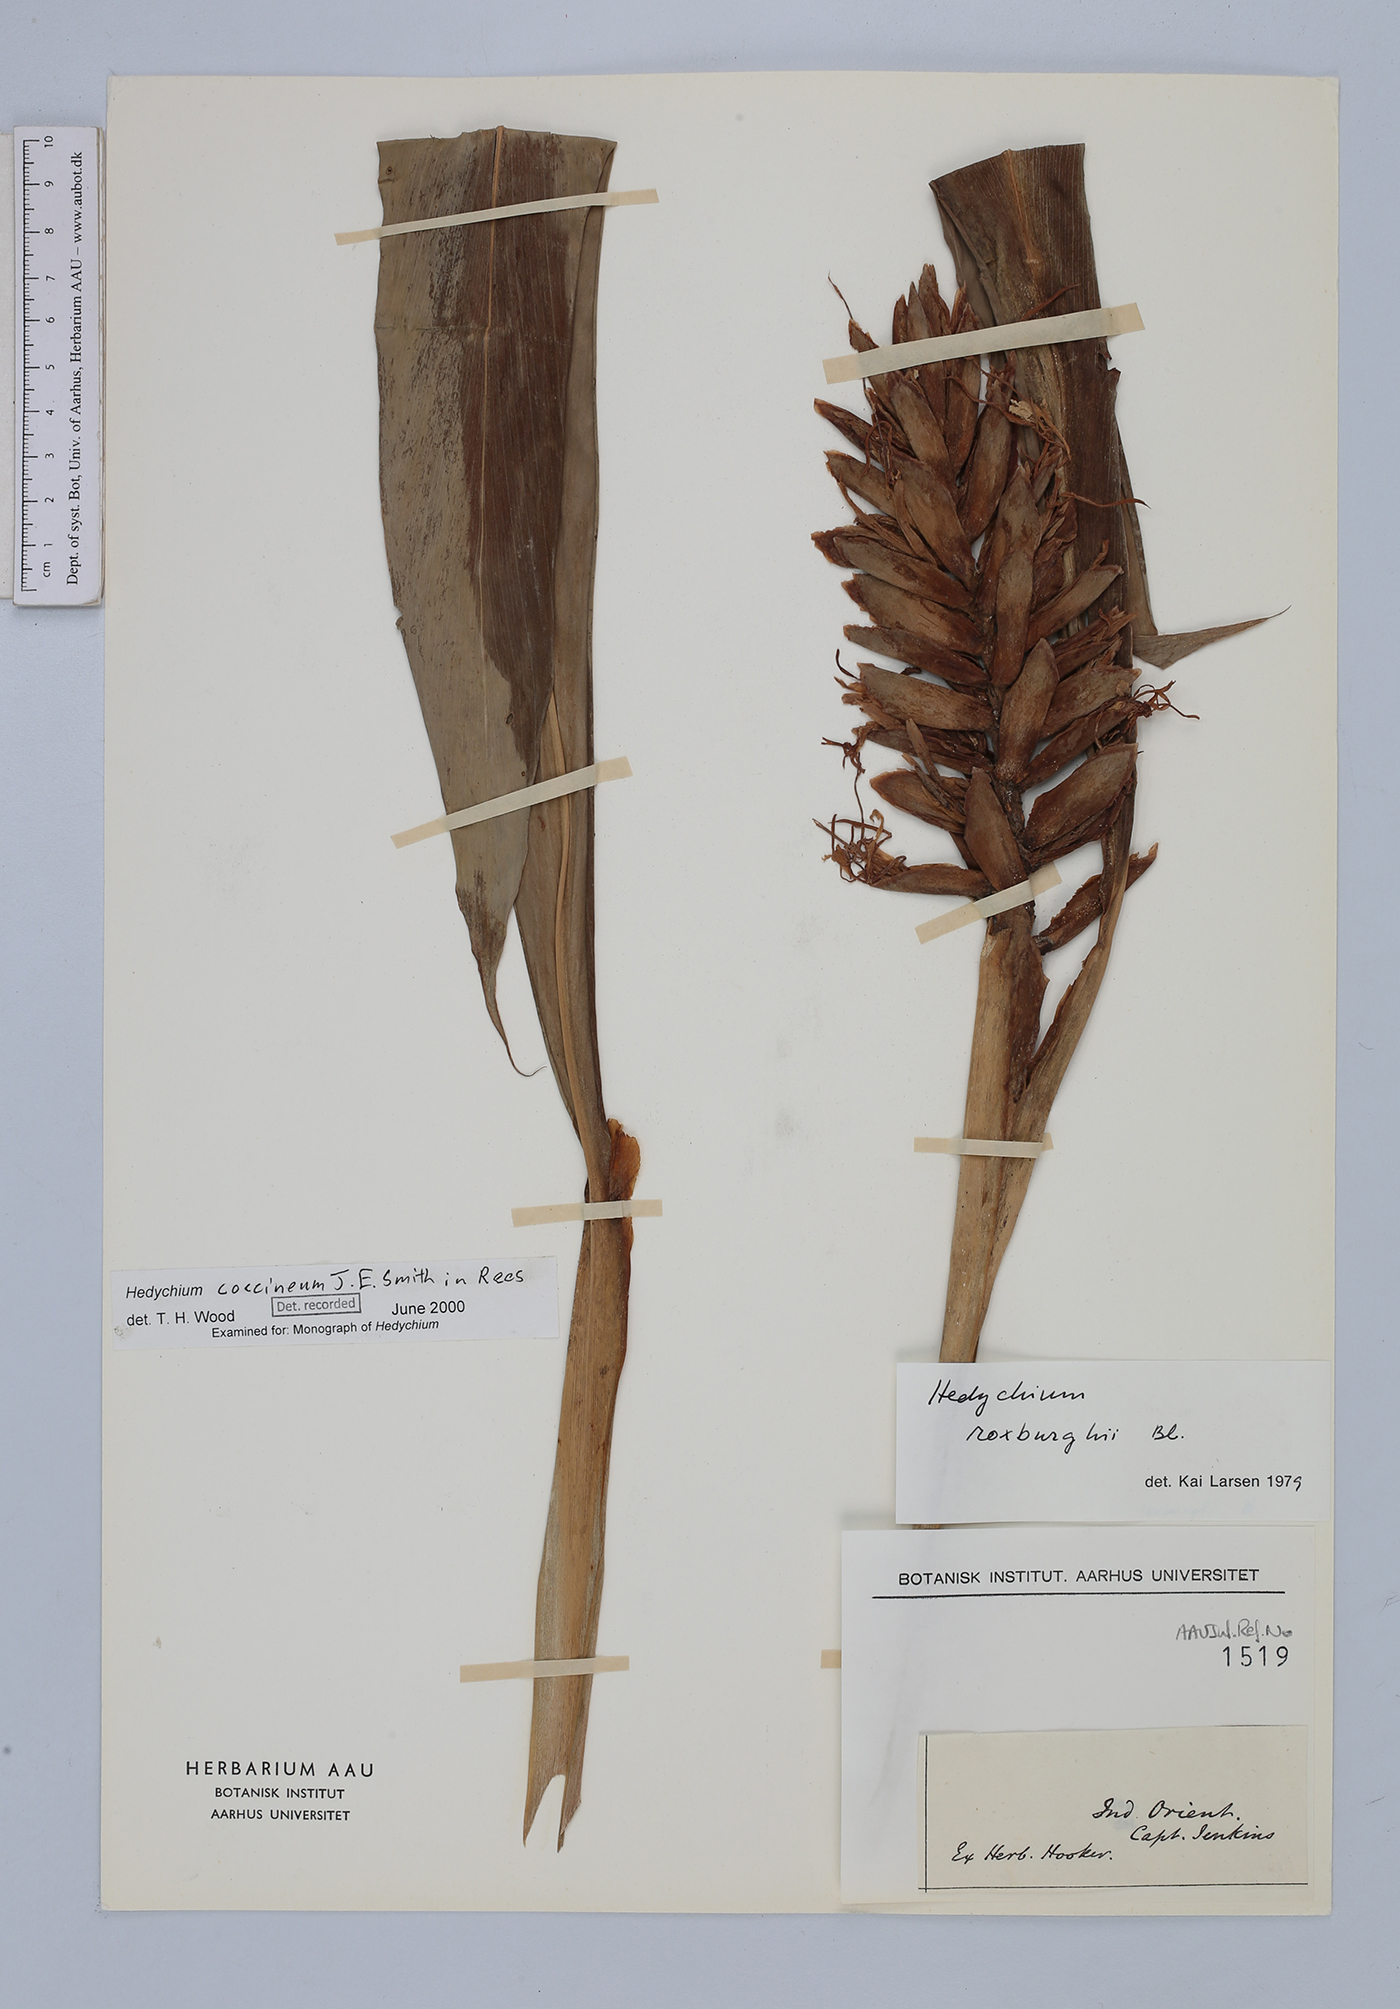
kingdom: Plantae
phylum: Tracheophyta
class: Liliopsida
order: Zingiberales
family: Zingiberaceae
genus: Hedychium
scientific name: Hedychium coccineum
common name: Red ginger-lily
